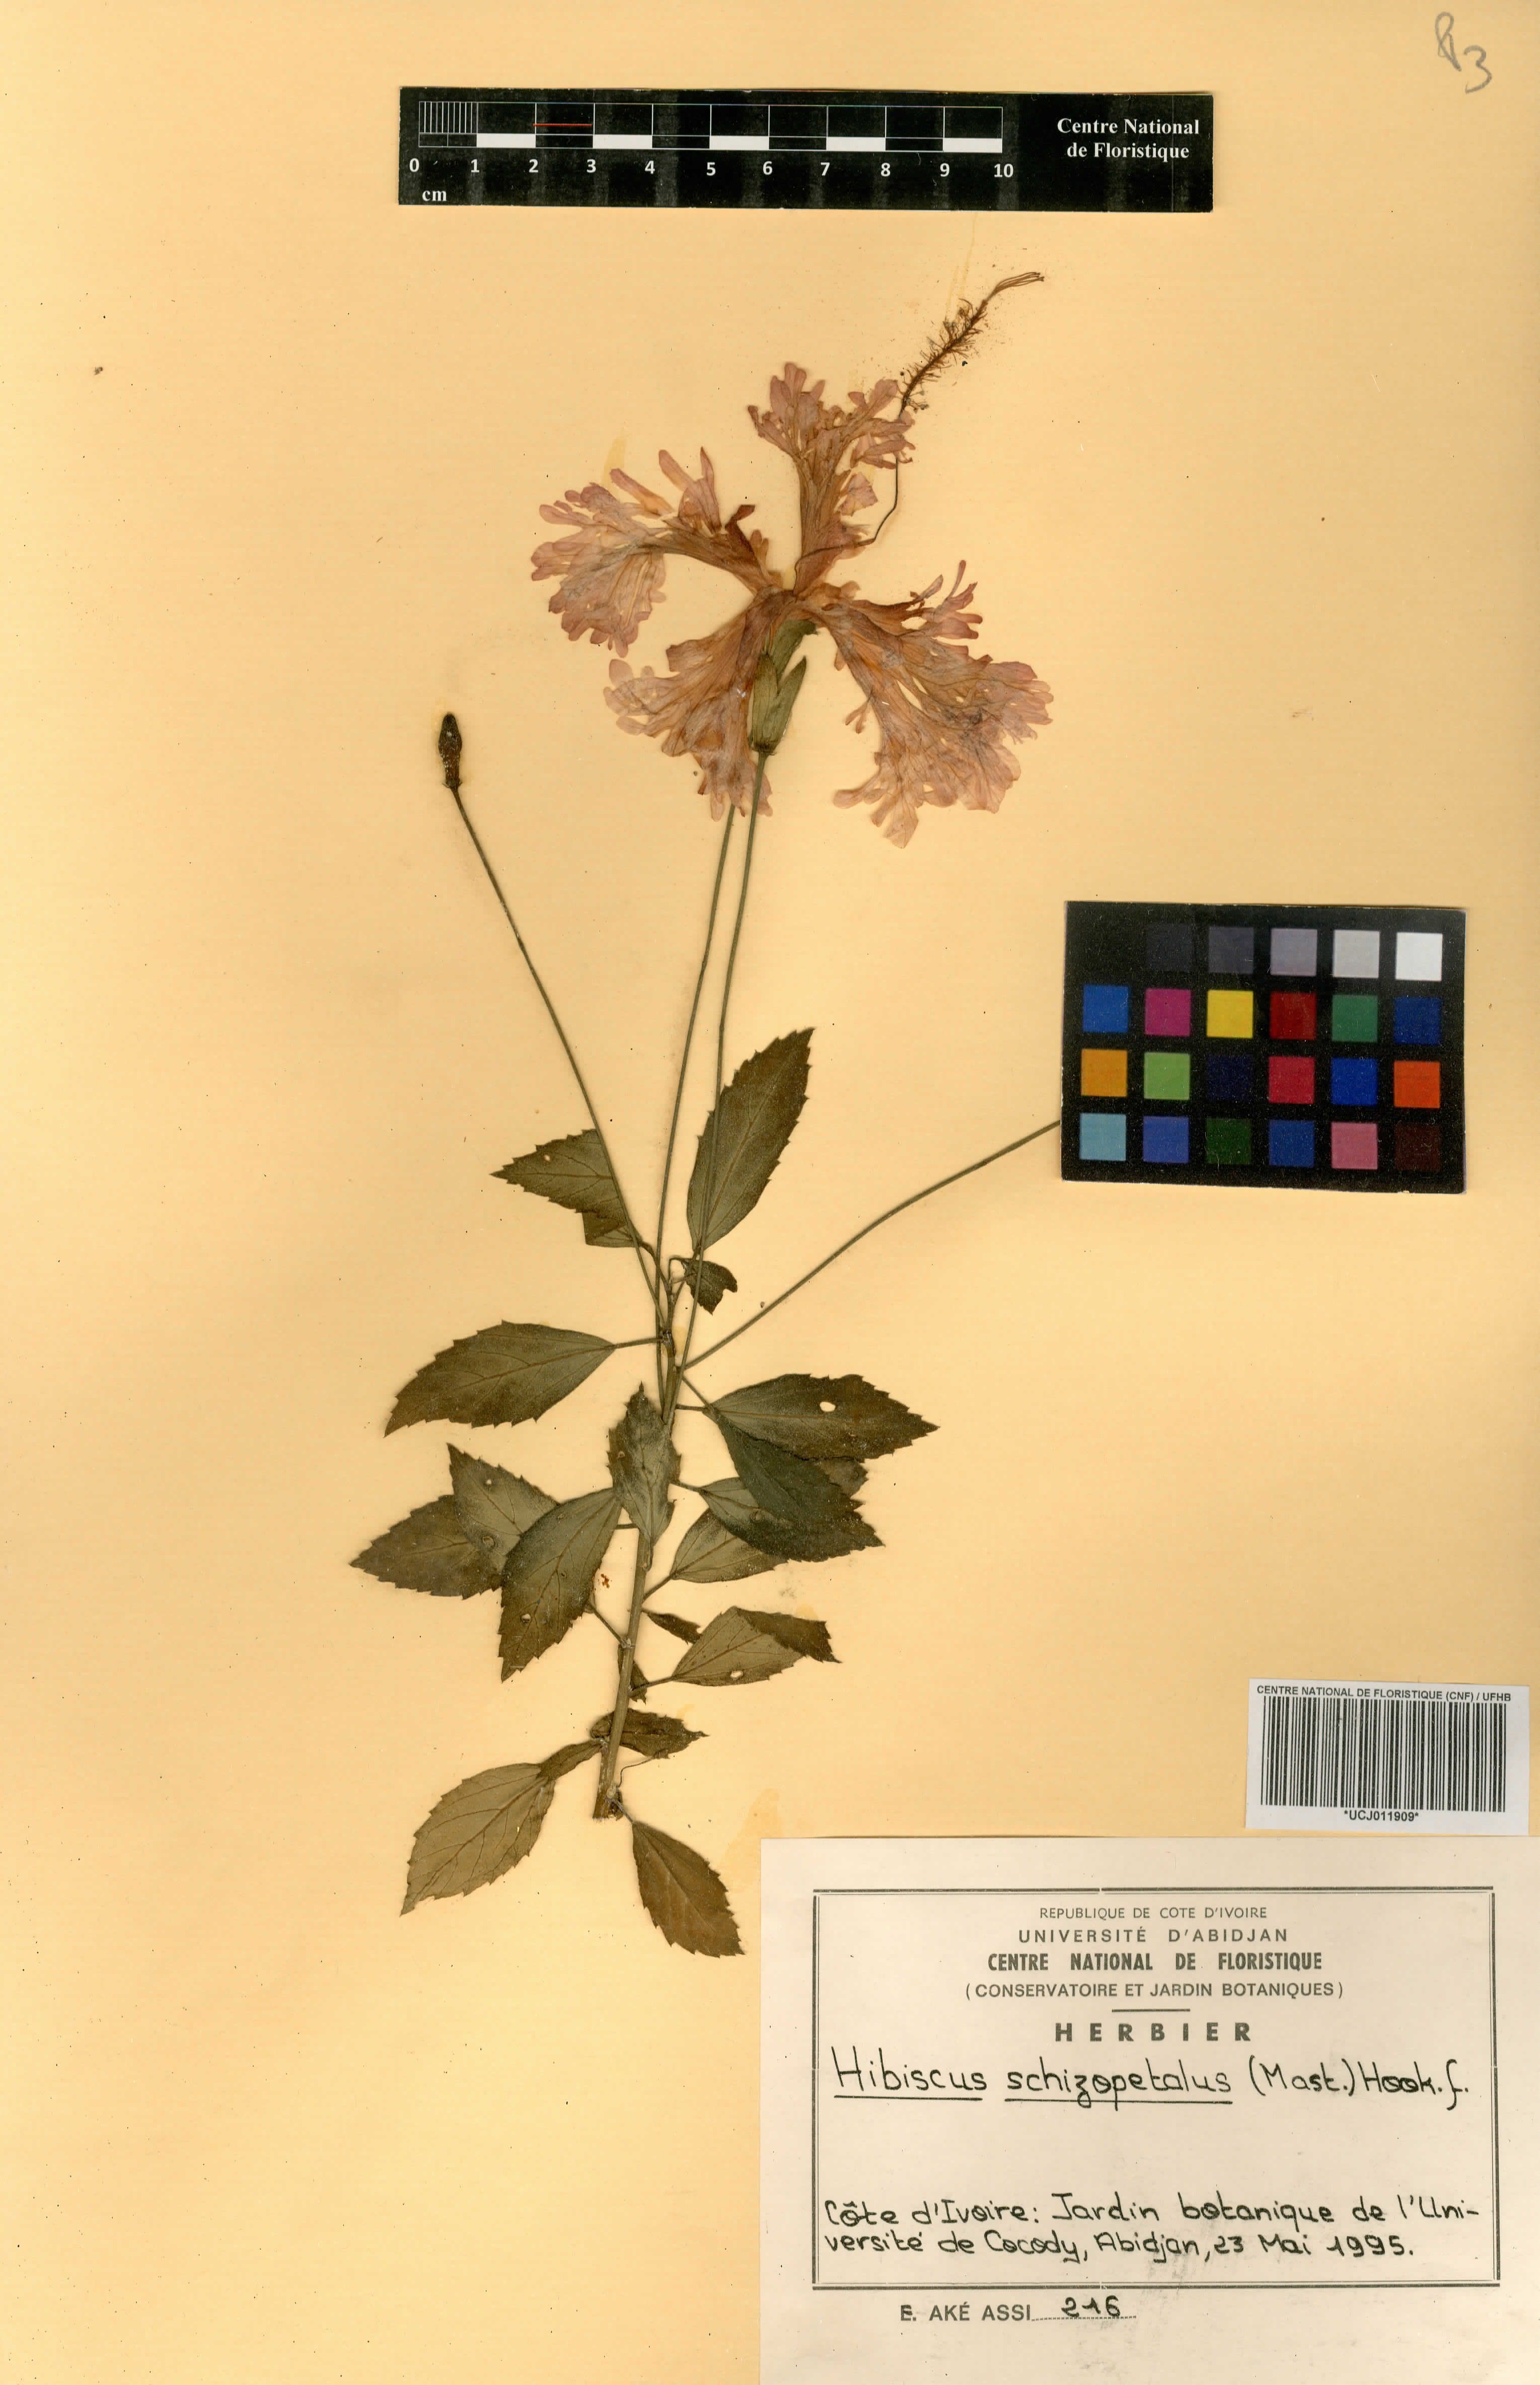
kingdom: Plantae
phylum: Tracheophyta
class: Magnoliopsida
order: Malvales
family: Malvaceae
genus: Hibiscus
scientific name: Hibiscus schizopetalus
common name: Fringed rosemallow
